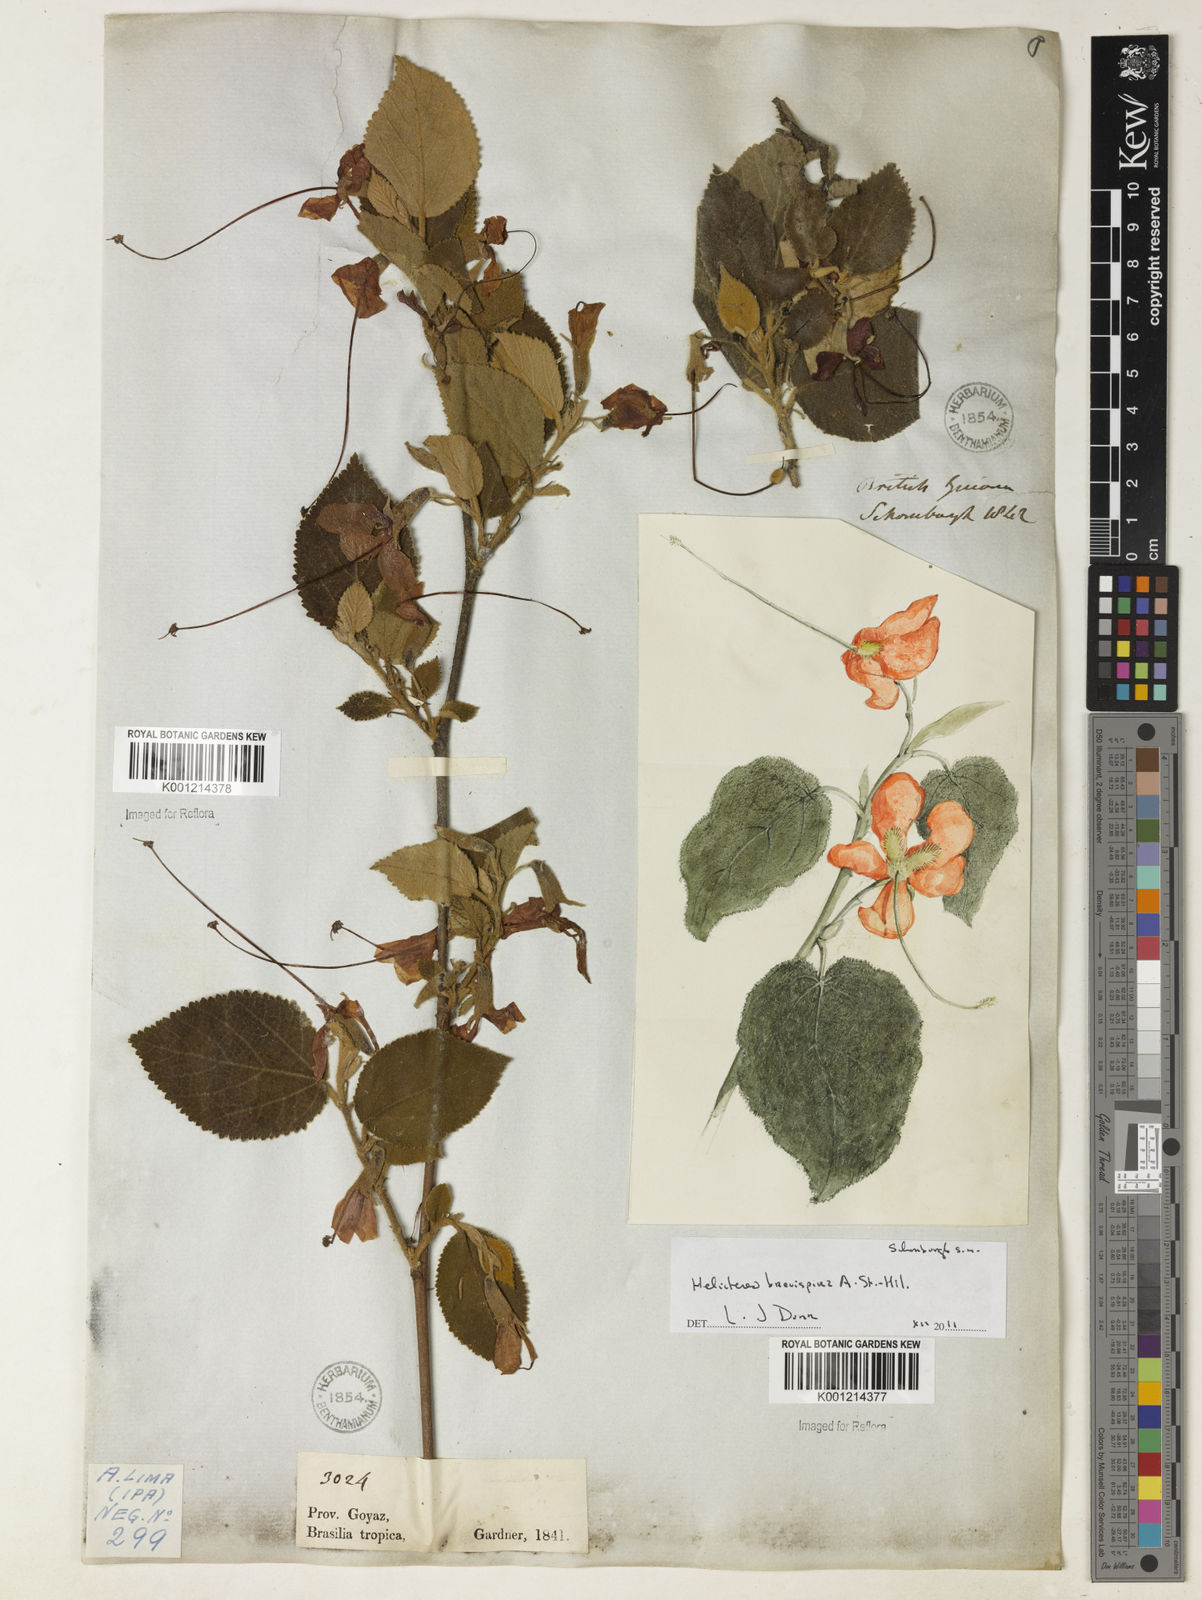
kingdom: Plantae
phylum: Tracheophyta
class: Magnoliopsida
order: Malvales
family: Malvaceae
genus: Helicteres
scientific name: Helicteres
